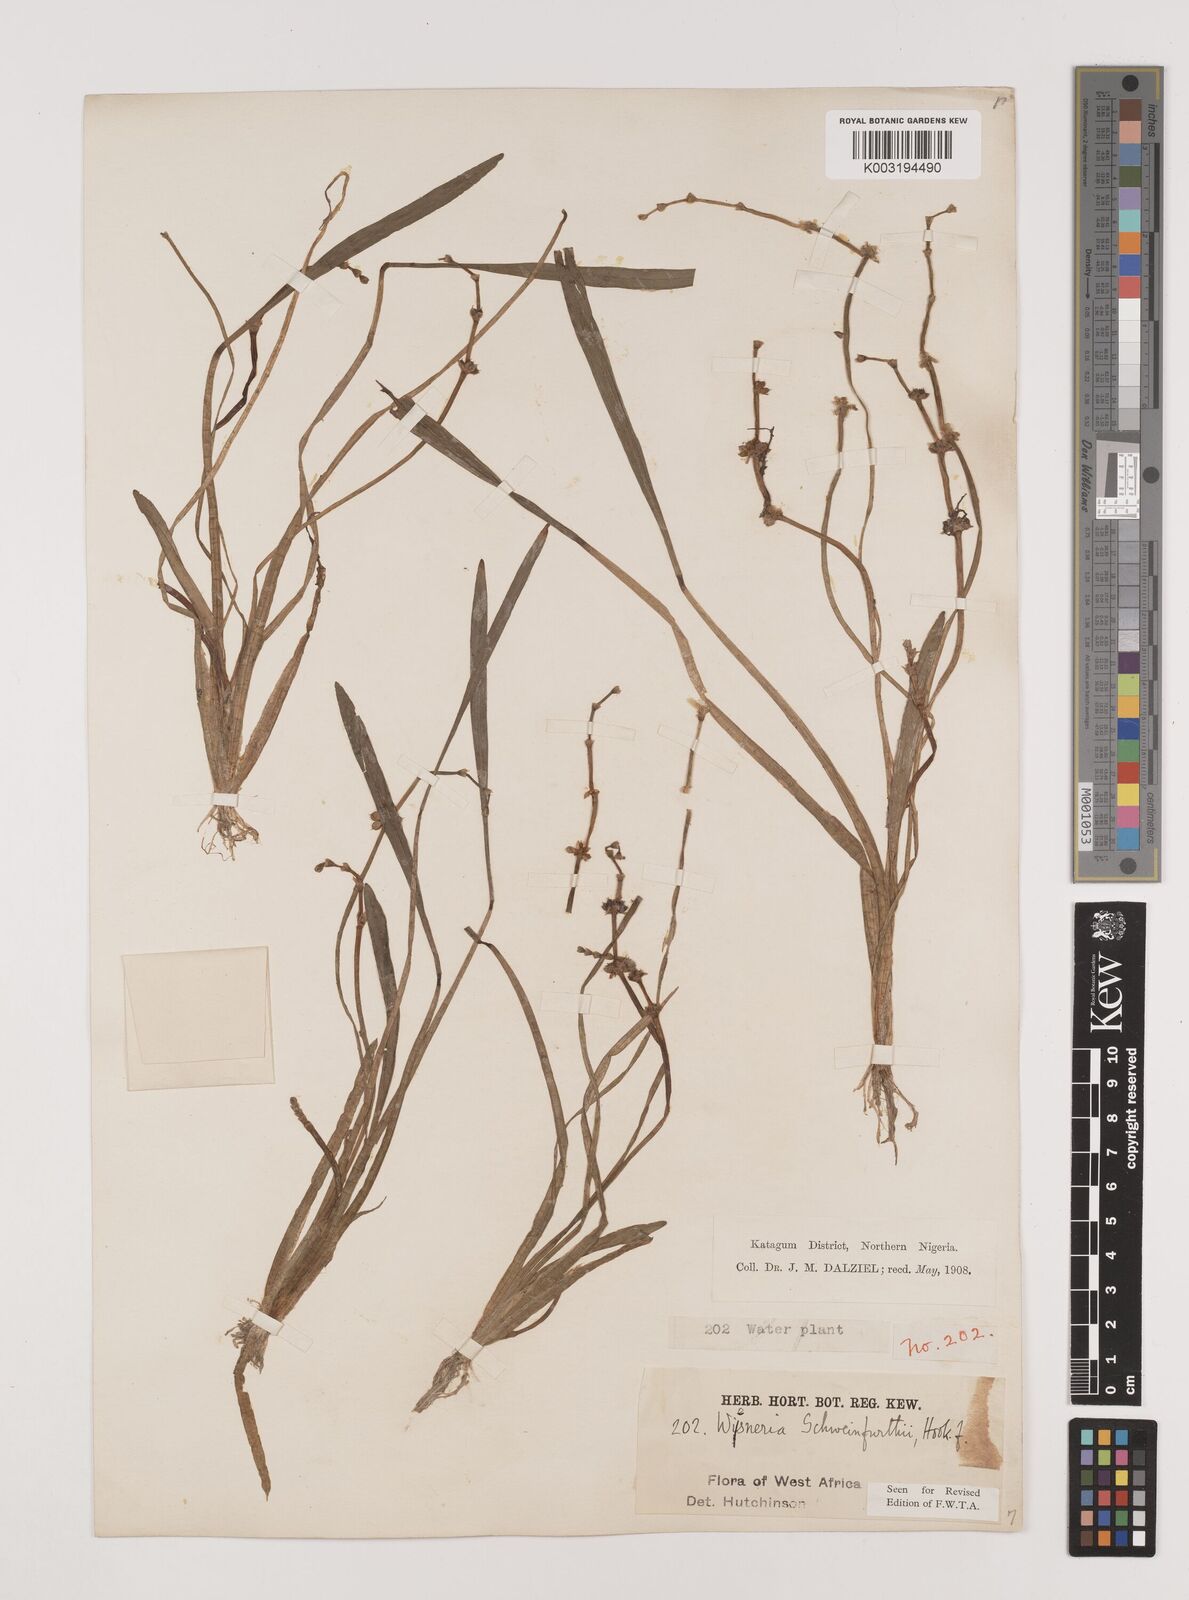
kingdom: Plantae
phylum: Tracheophyta
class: Liliopsida
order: Alismatales
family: Alismataceae
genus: Wiesneria
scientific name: Wiesneria schweinfurthii
